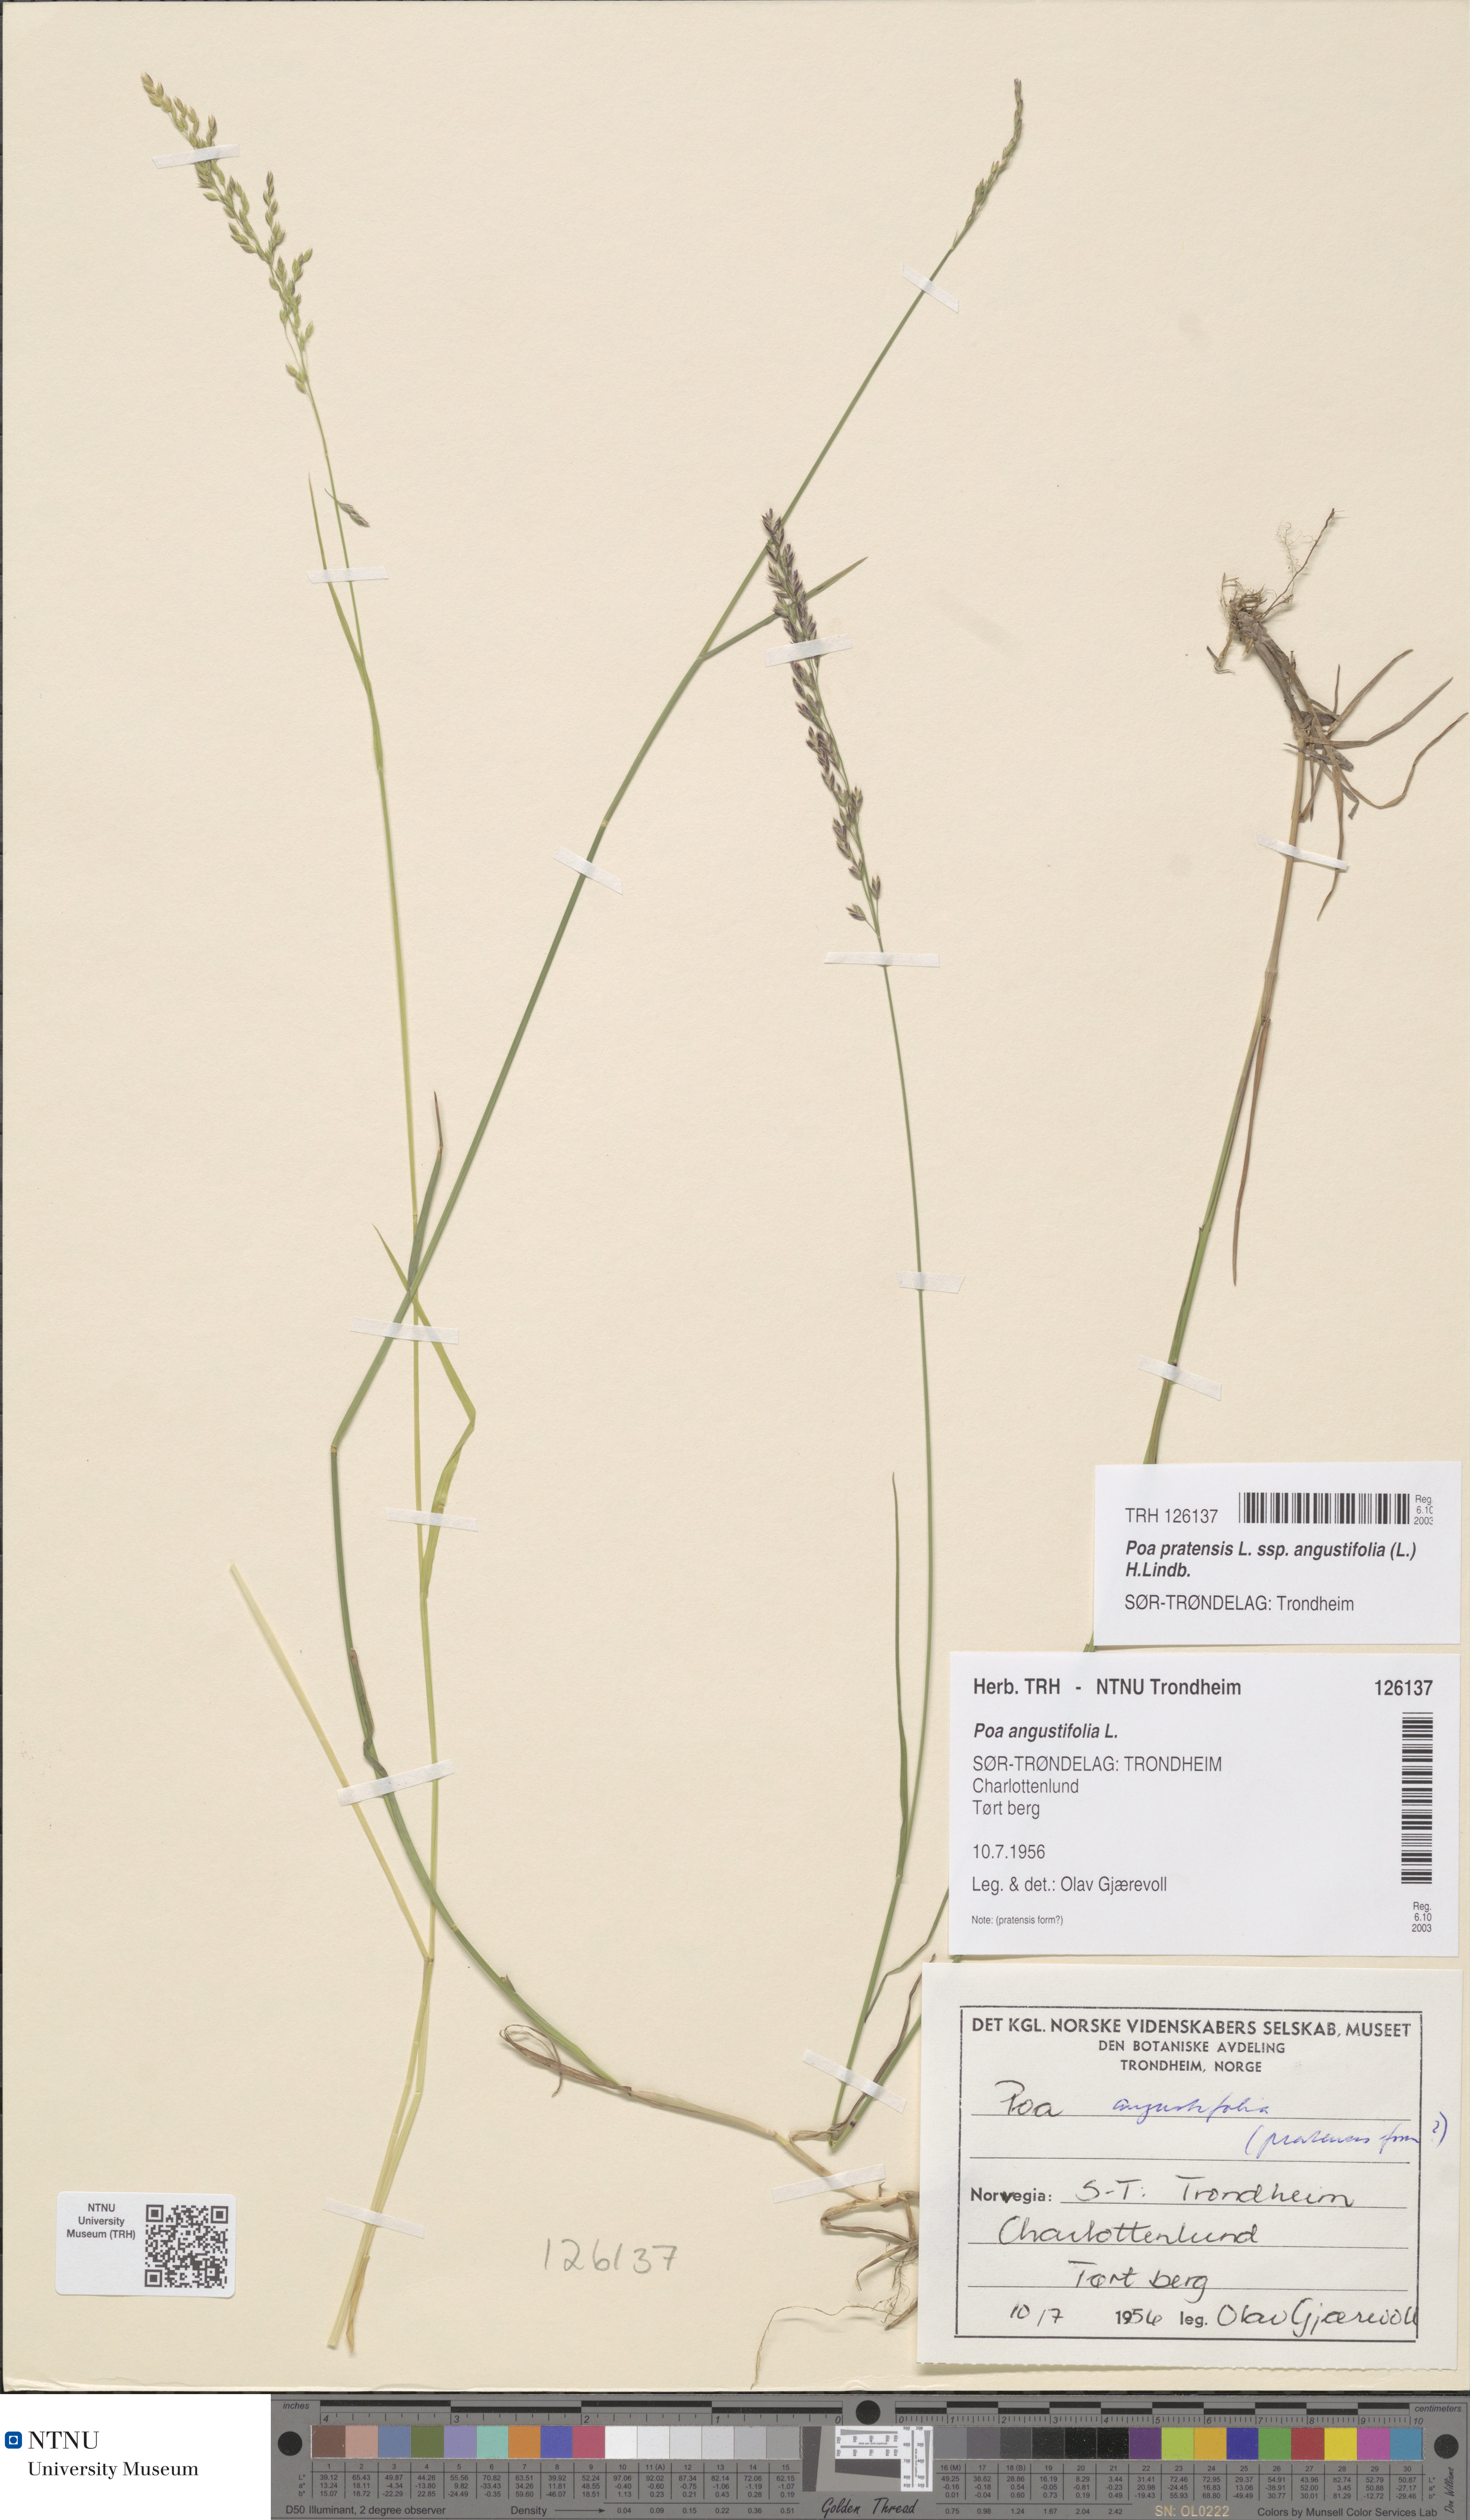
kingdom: Plantae
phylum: Tracheophyta
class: Liliopsida
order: Poales
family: Poaceae
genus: Poa
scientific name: Poa angustifolia
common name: Narrow-leaved meadow-grass
